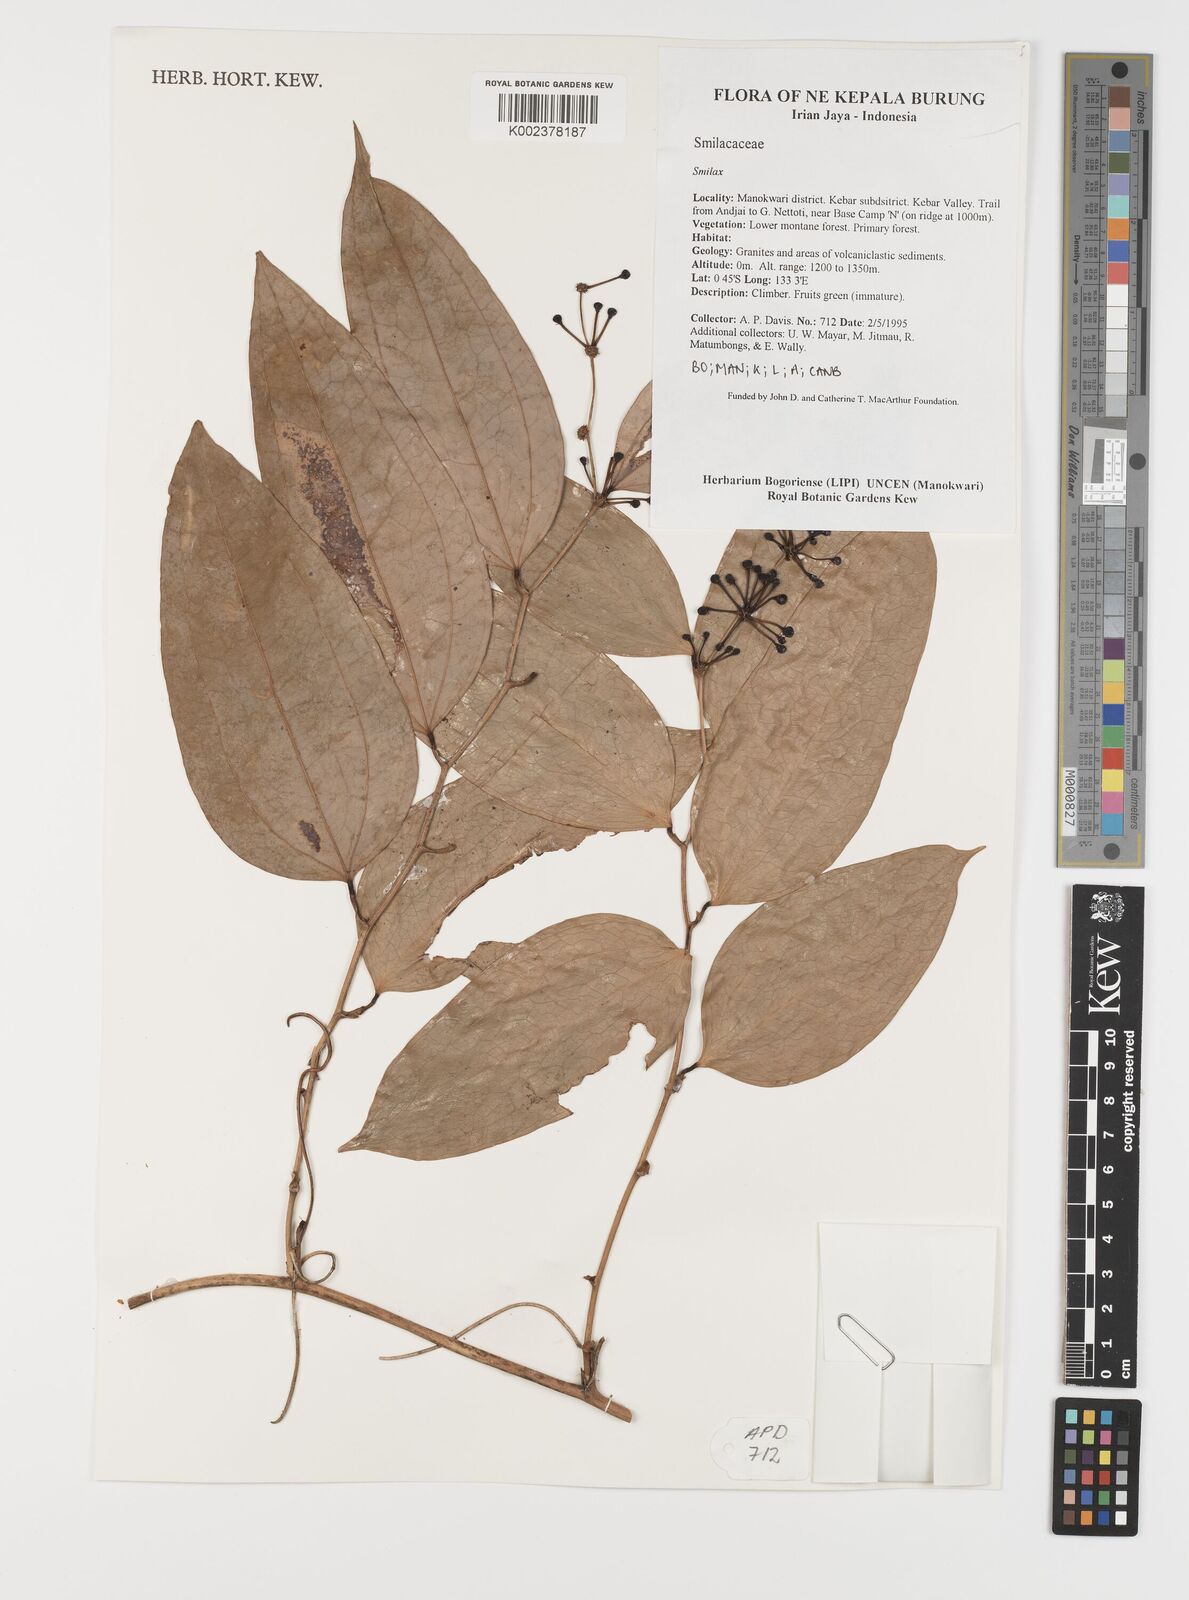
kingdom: Plantae
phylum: Tracheophyta
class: Liliopsida
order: Liliales
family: Smilacaceae
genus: Smilax
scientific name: Smilax
